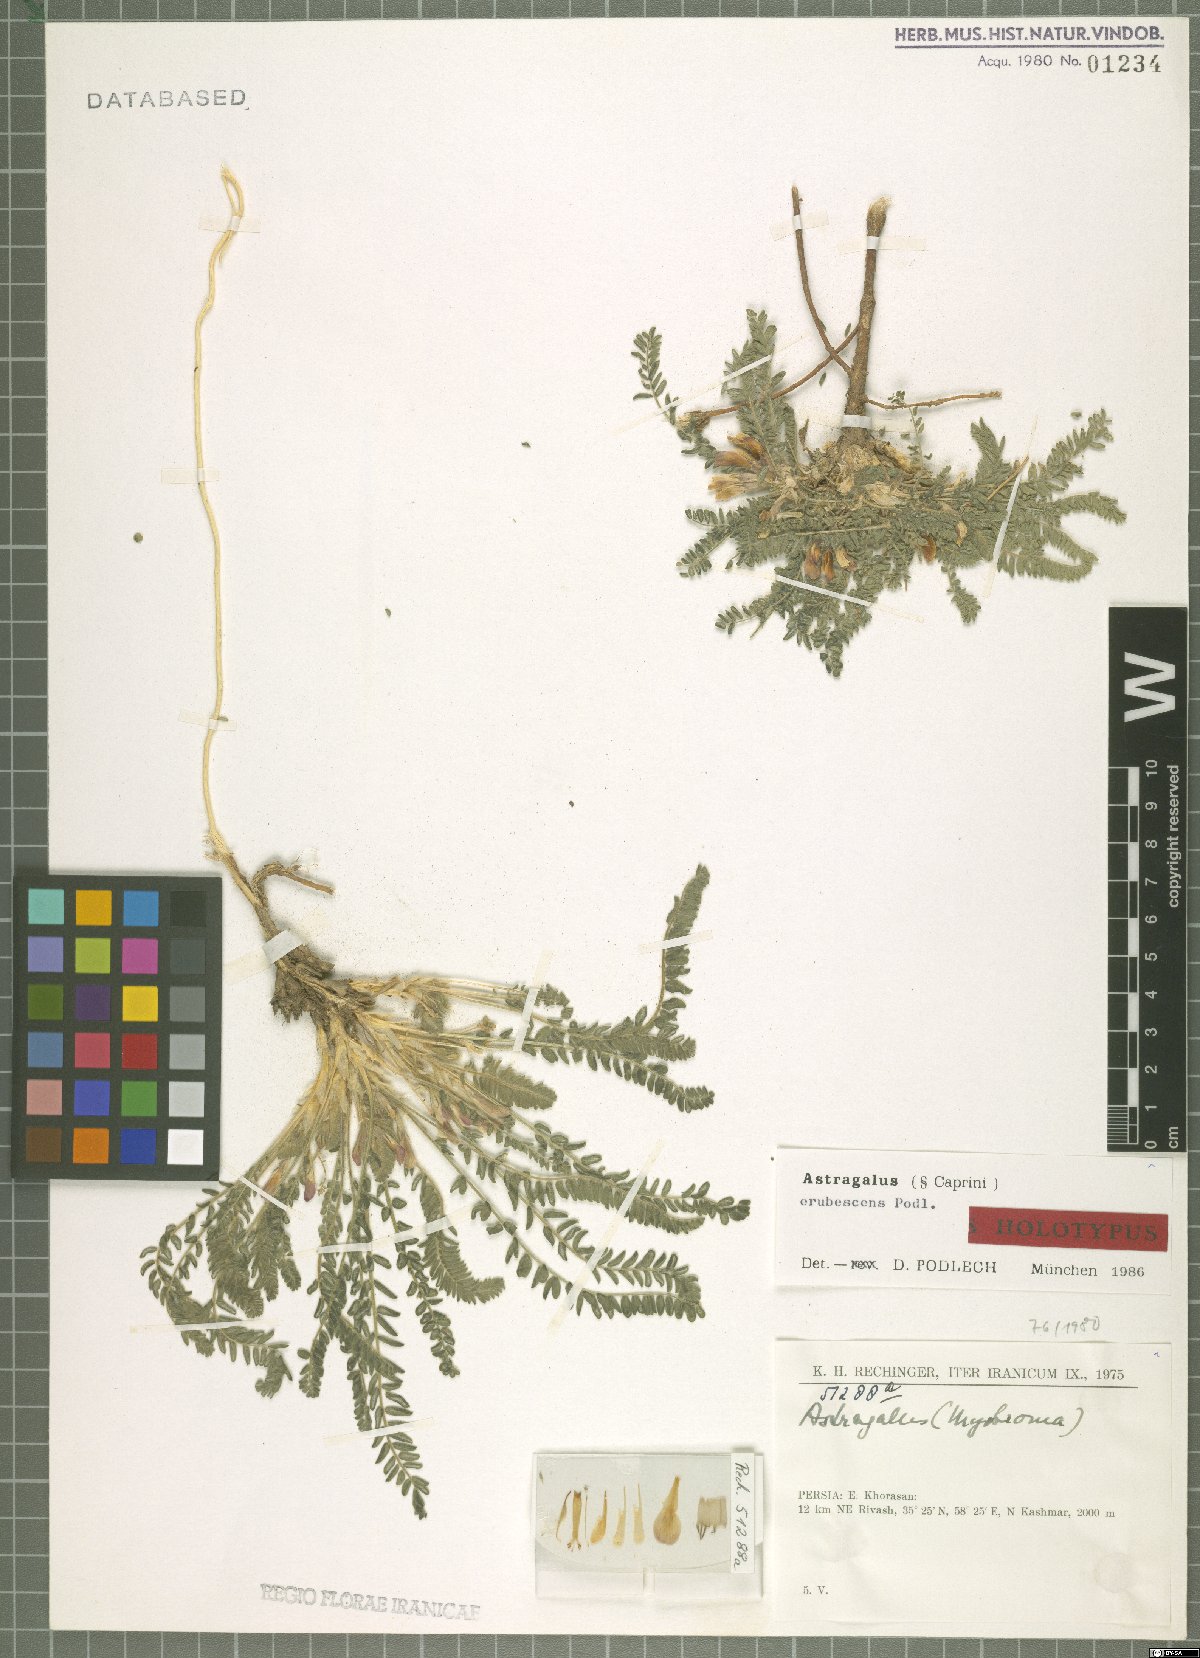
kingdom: Plantae
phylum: Tracheophyta
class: Magnoliopsida
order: Fabales
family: Fabaceae
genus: Astragalus
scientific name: Astragalus erubescens
